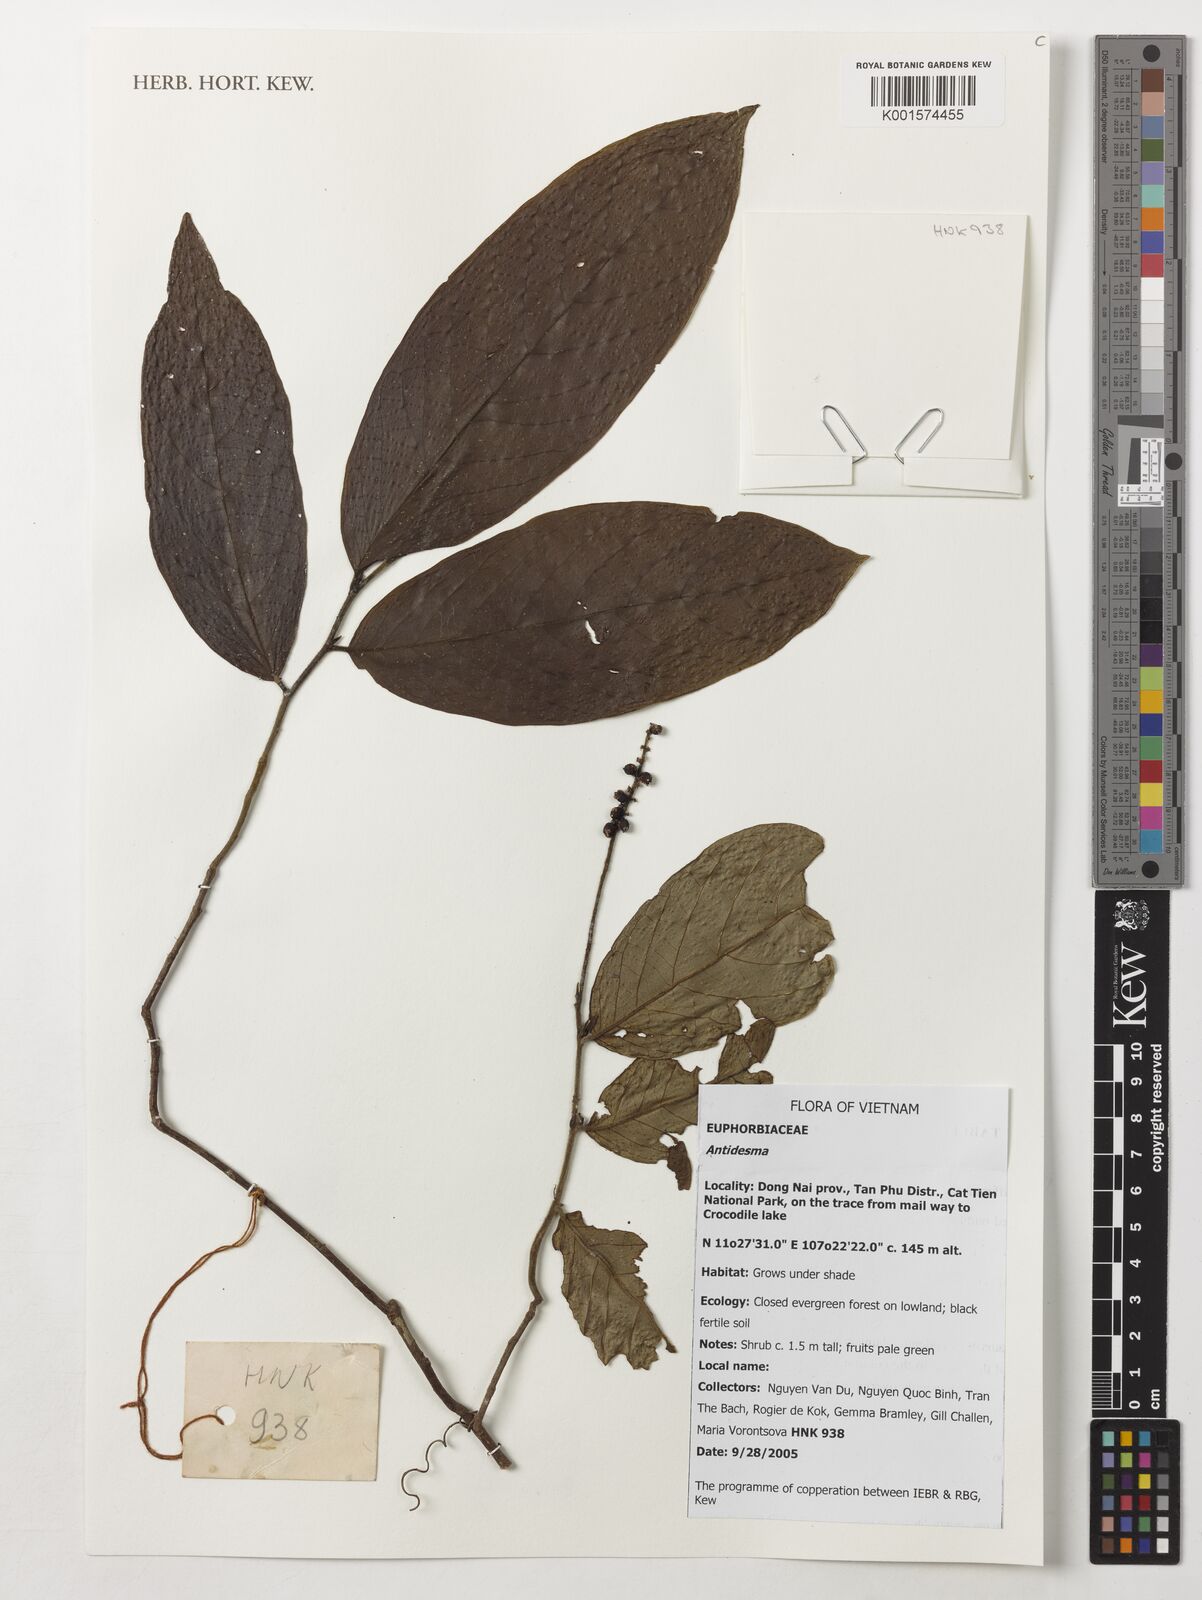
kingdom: Plantae
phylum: Tracheophyta
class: Magnoliopsida
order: Malpighiales
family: Phyllanthaceae
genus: Antidesma
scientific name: Antidesma
